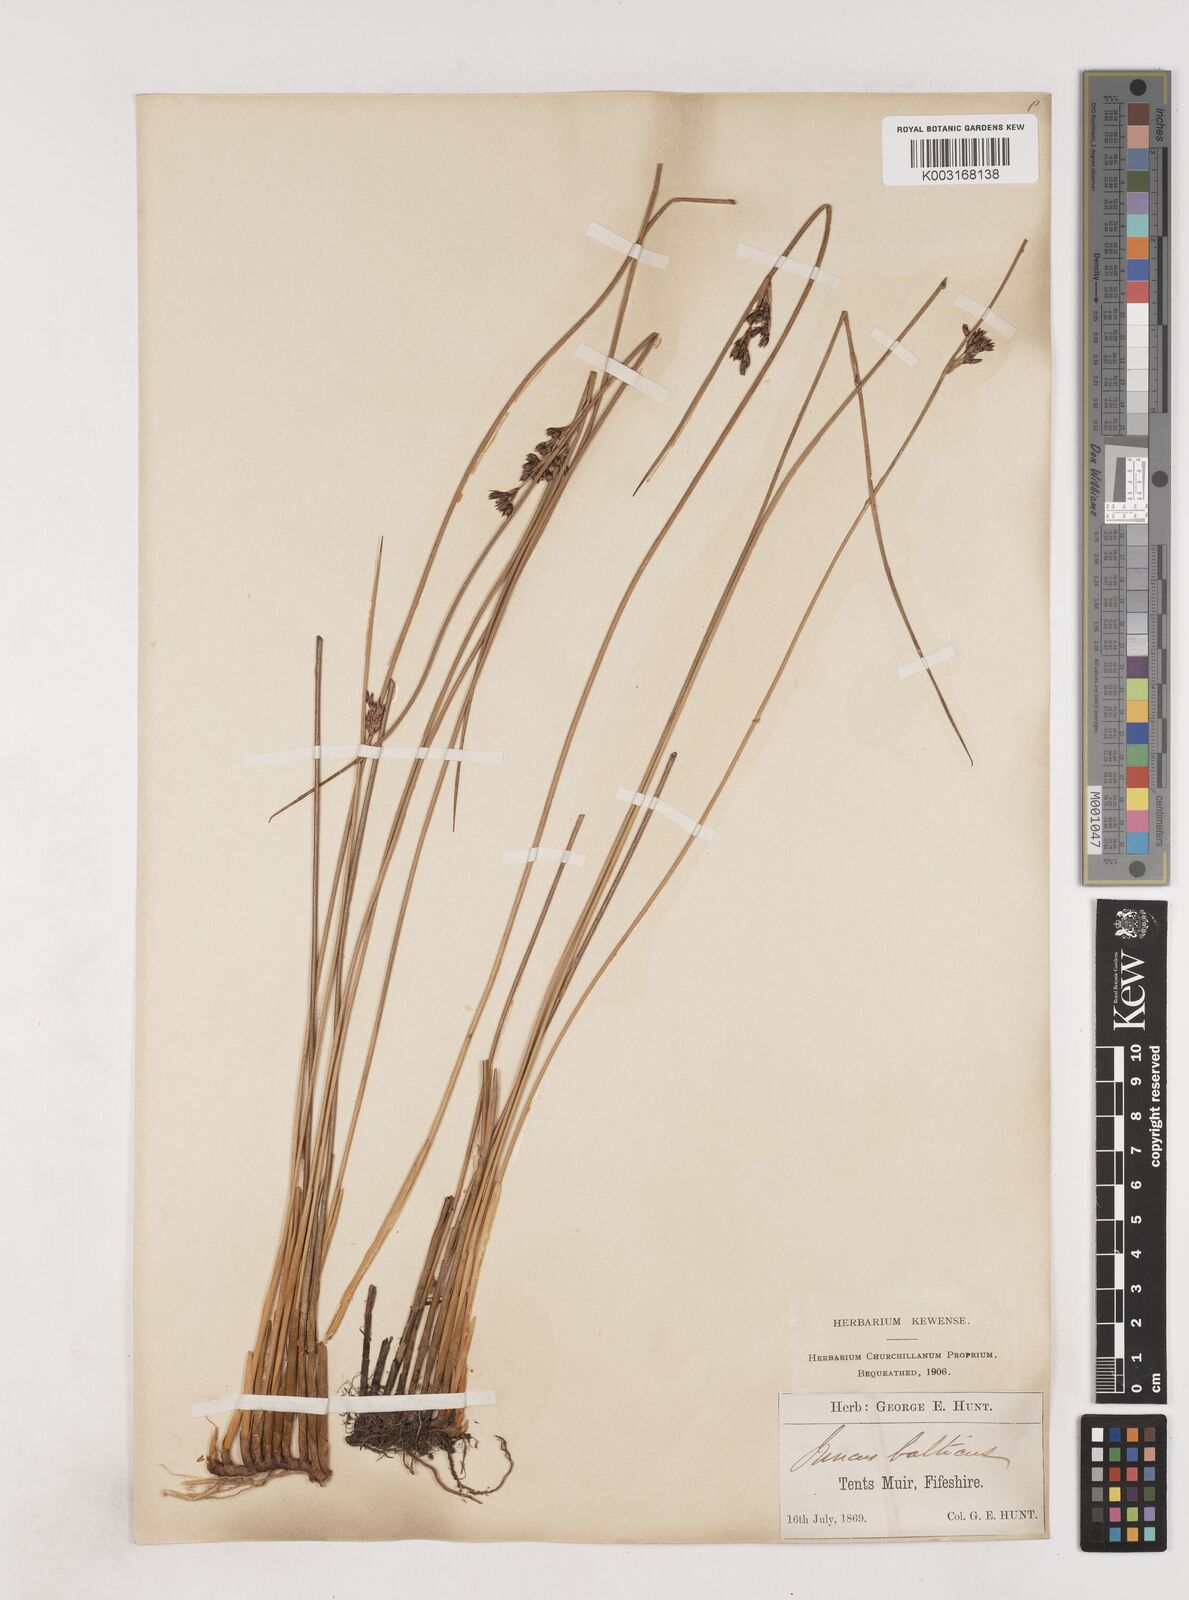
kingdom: Plantae
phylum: Tracheophyta
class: Liliopsida
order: Poales
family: Juncaceae
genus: Juncus
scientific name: Juncus balticus
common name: Baltic rush
